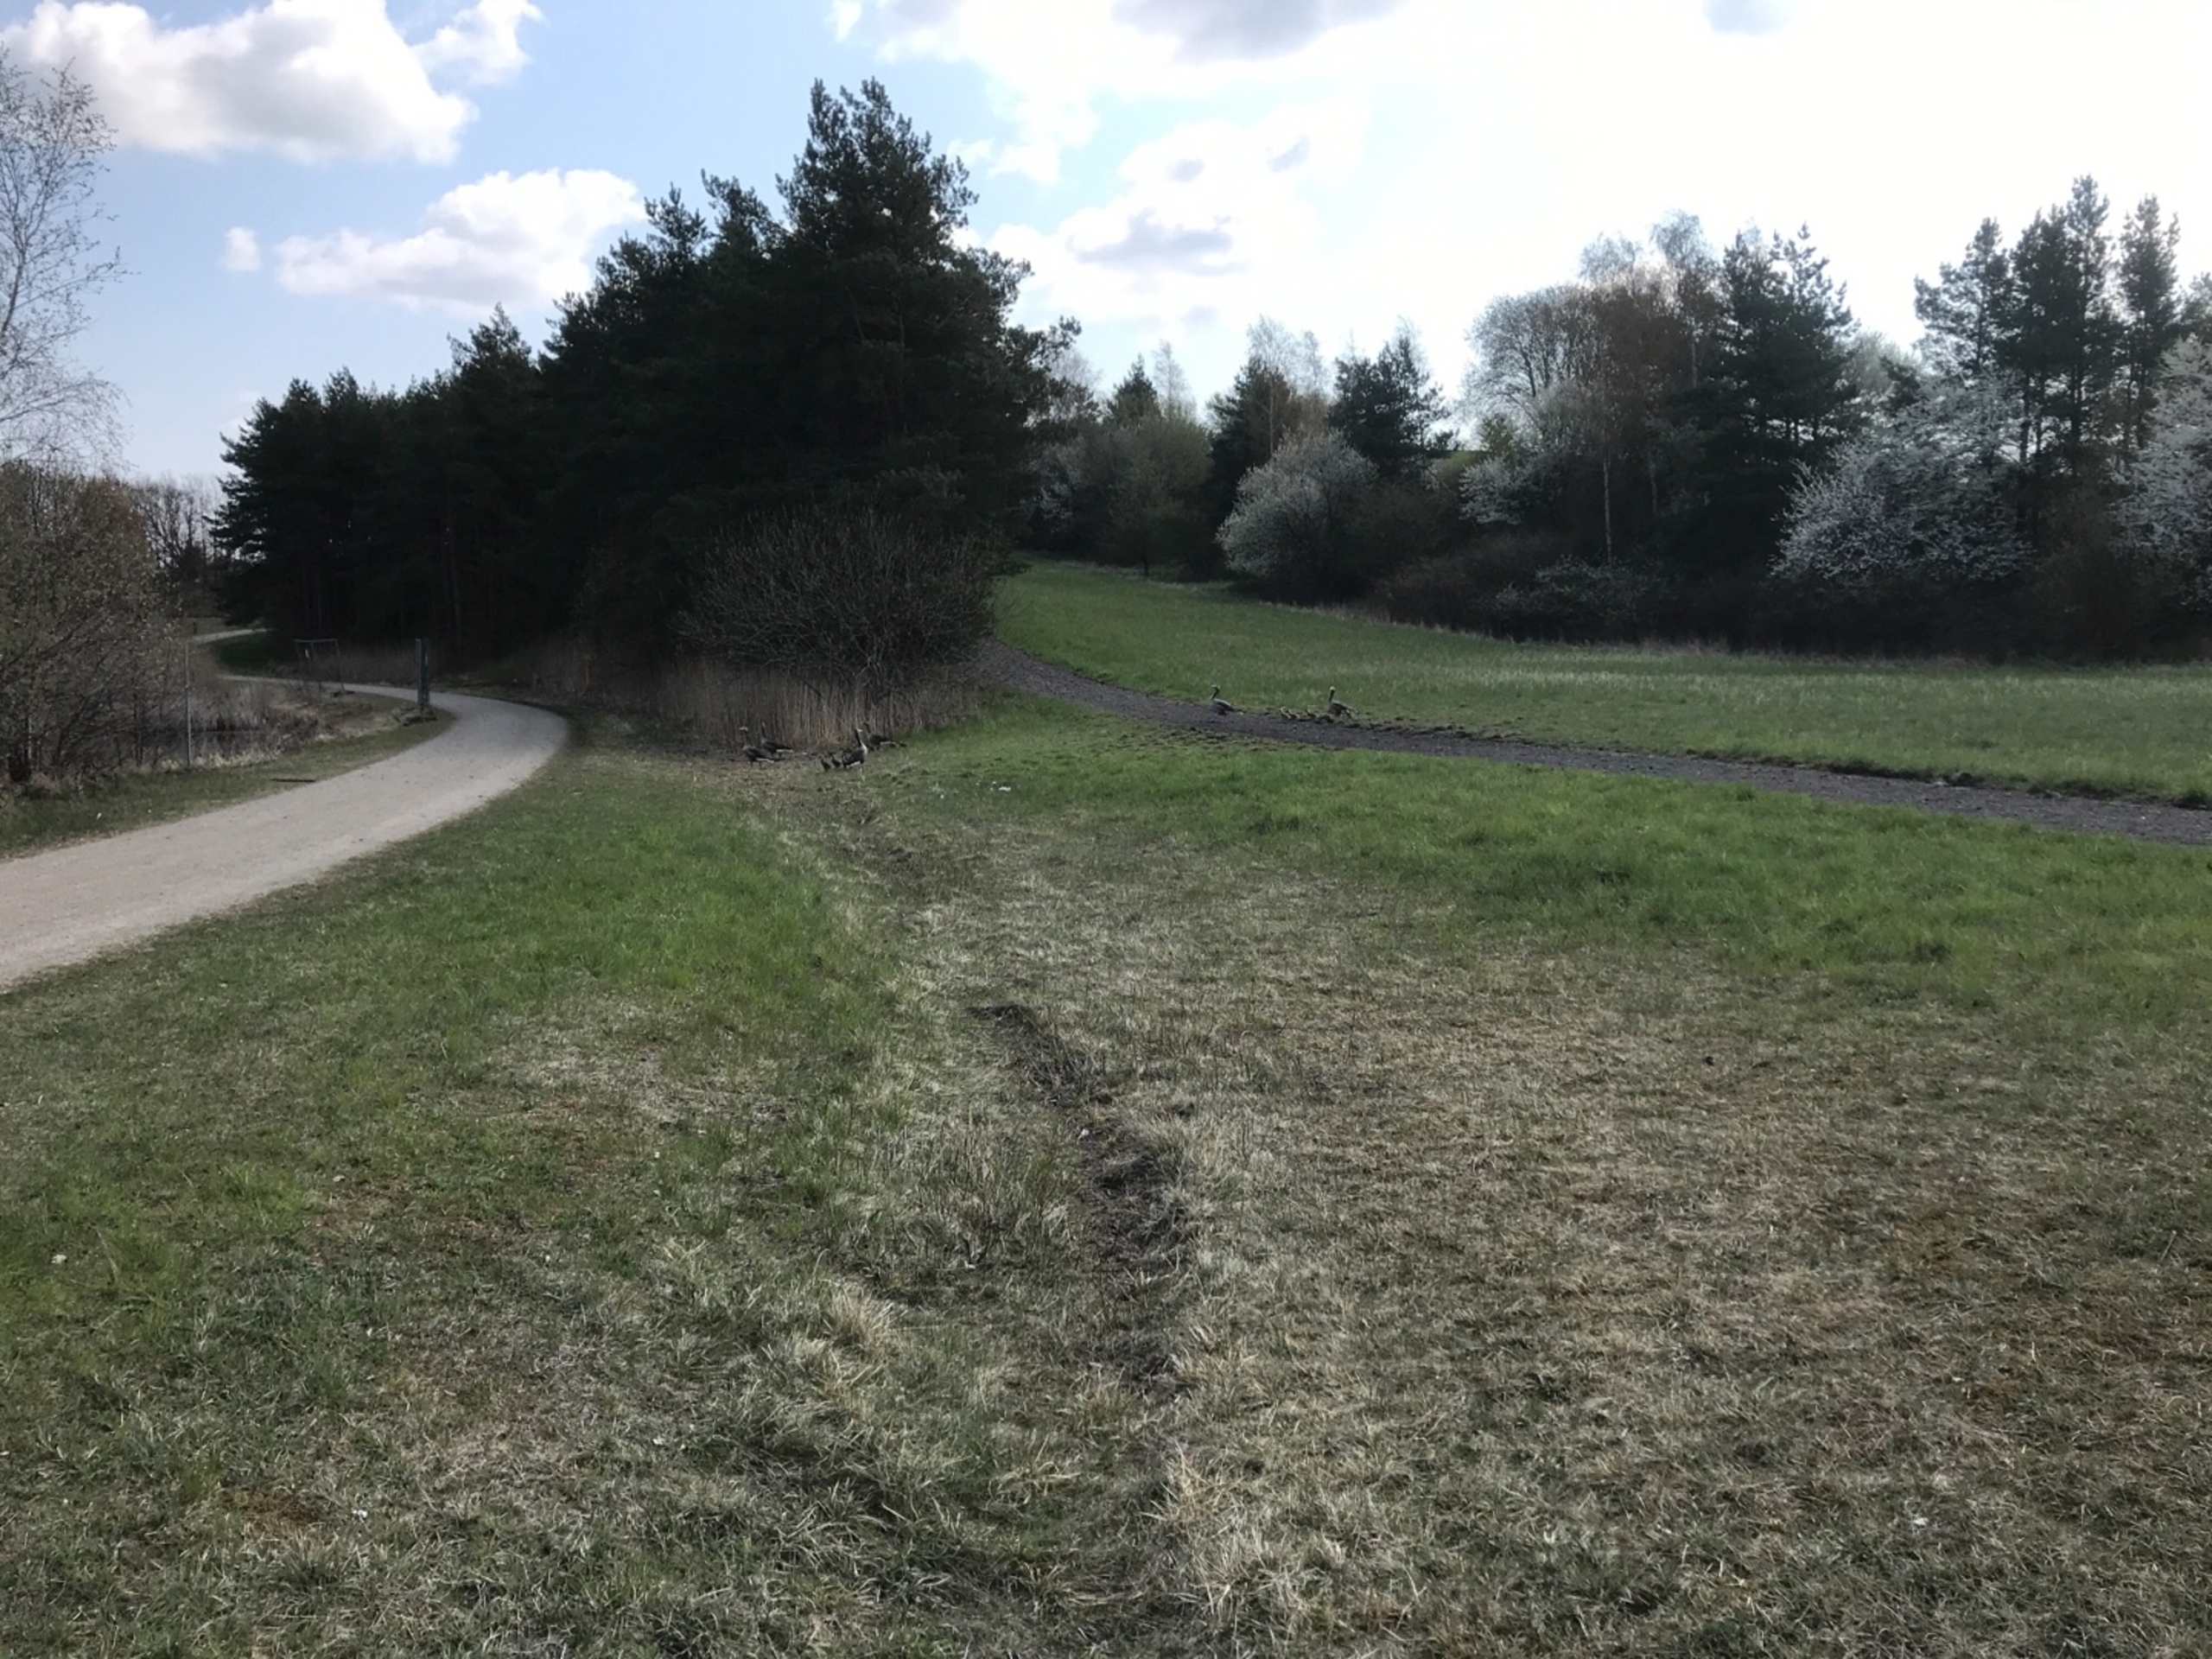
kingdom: Animalia
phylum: Chordata
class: Aves
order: Anseriformes
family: Anatidae
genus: Anser
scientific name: Anser anser
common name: Grågås
